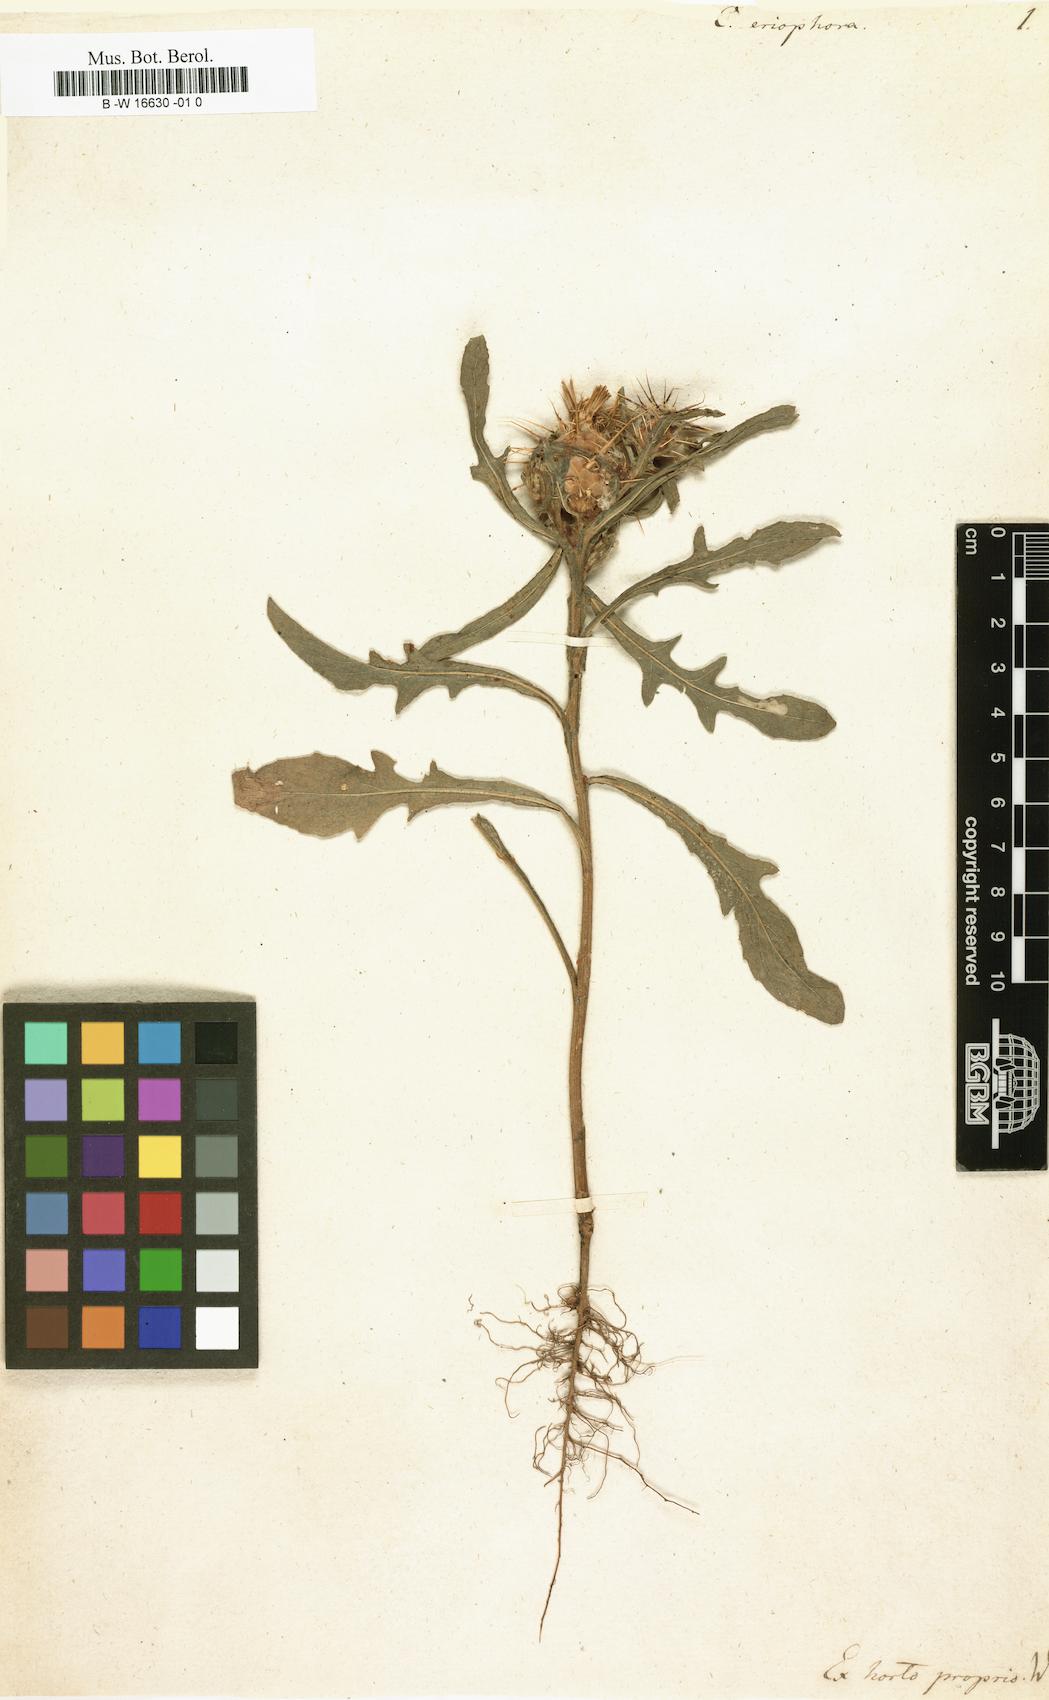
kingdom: Plantae
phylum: Tracheophyta
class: Magnoliopsida
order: Asterales
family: Asteraceae
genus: Centaurea
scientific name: Centaurea eriophora
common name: Wild sandheath
